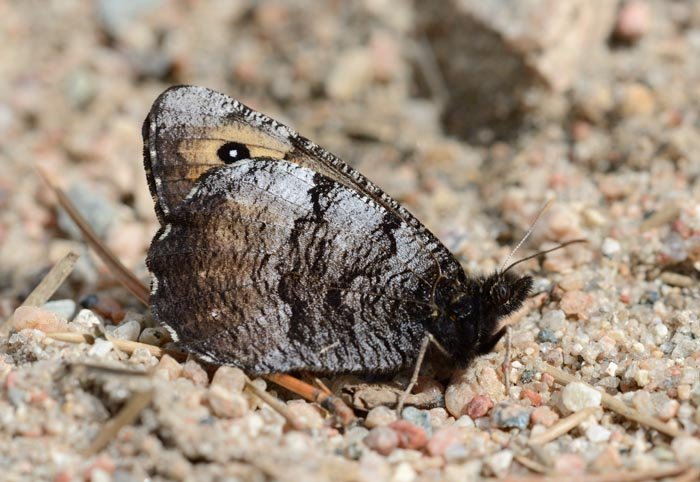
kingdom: Animalia
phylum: Arthropoda
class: Insecta
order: Lepidoptera
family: Nymphalidae
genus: Oeneis
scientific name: Oeneis macounii
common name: Macoun's Arctic
